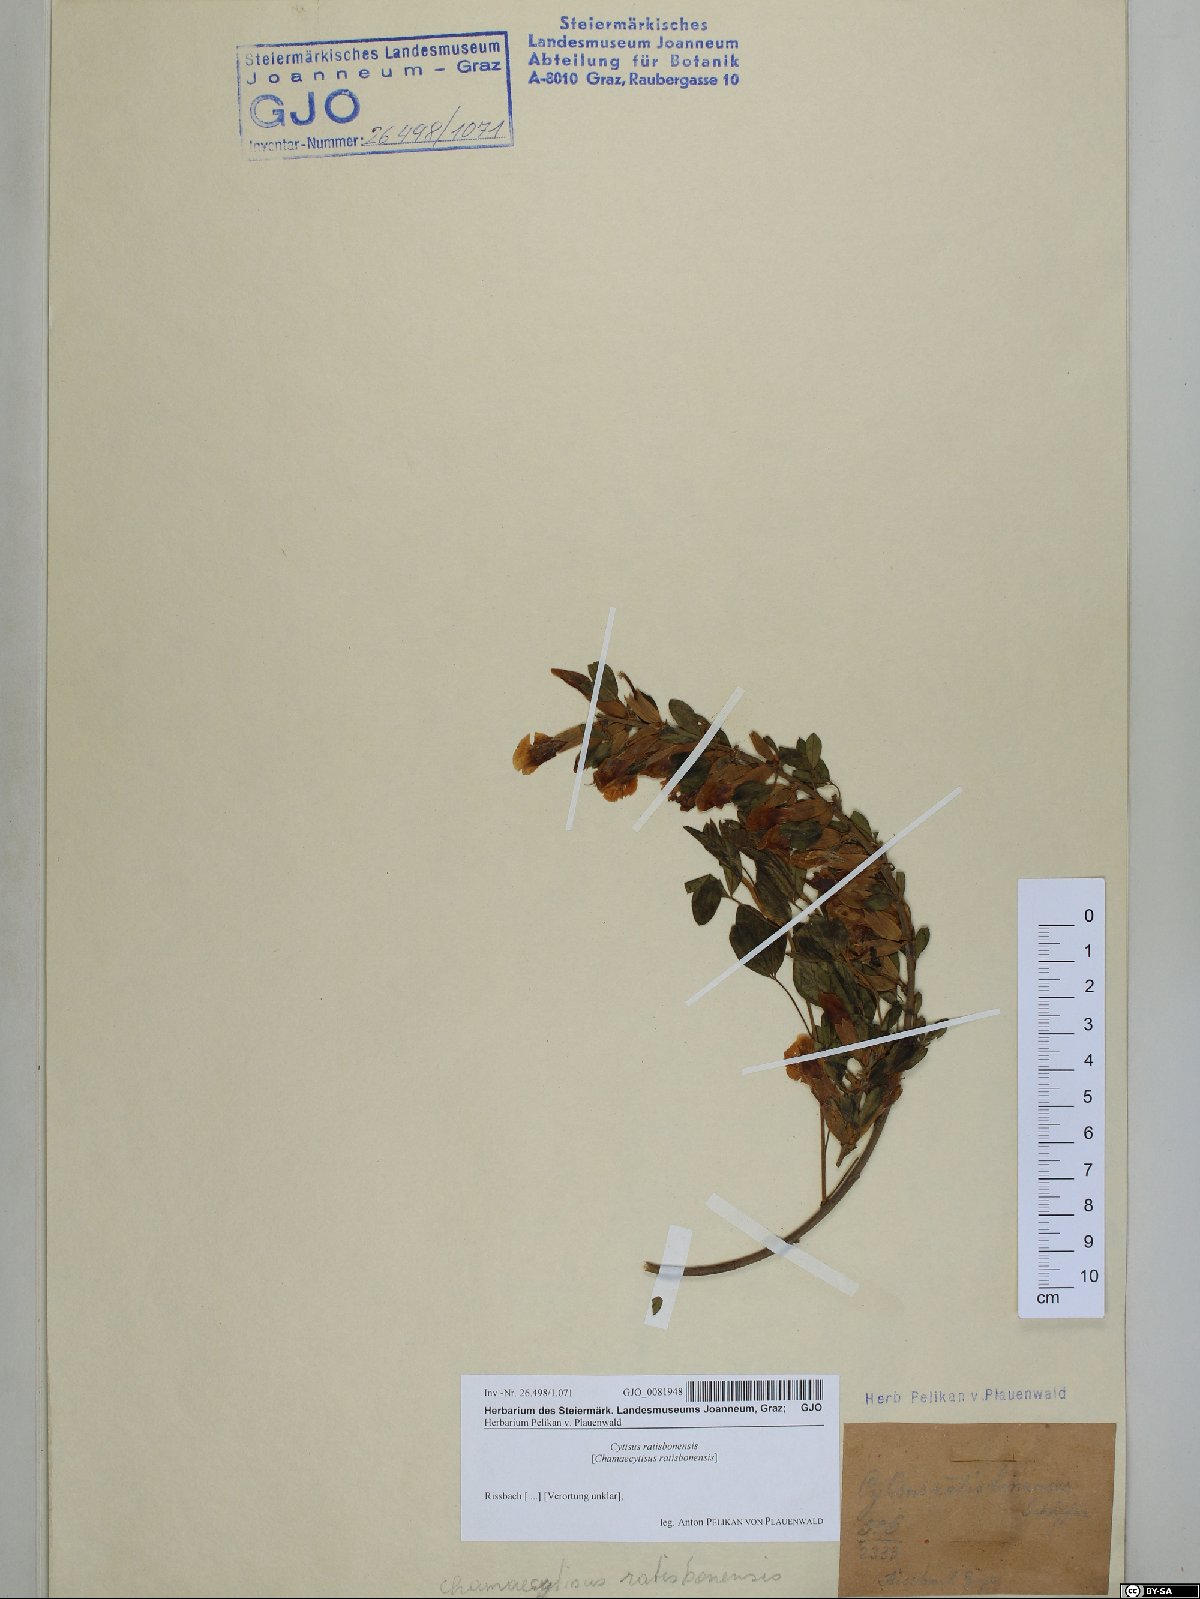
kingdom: Plantae
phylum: Tracheophyta
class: Magnoliopsida
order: Fabales
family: Fabaceae
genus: Chamaecytisus
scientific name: Chamaecytisus ratisbonensis
